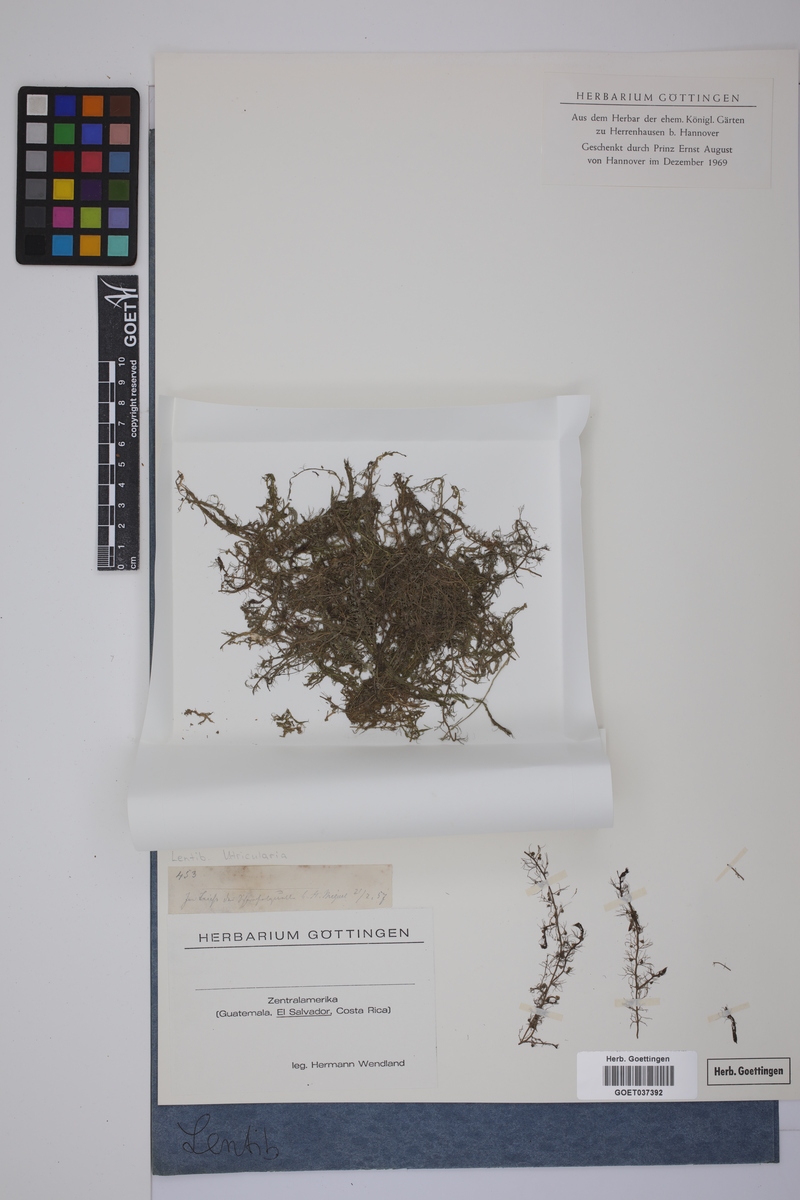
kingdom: Plantae
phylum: Tracheophyta
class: Magnoliopsida
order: Lamiales
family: Lentibulariaceae
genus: Utricularia
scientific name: Utricularia
